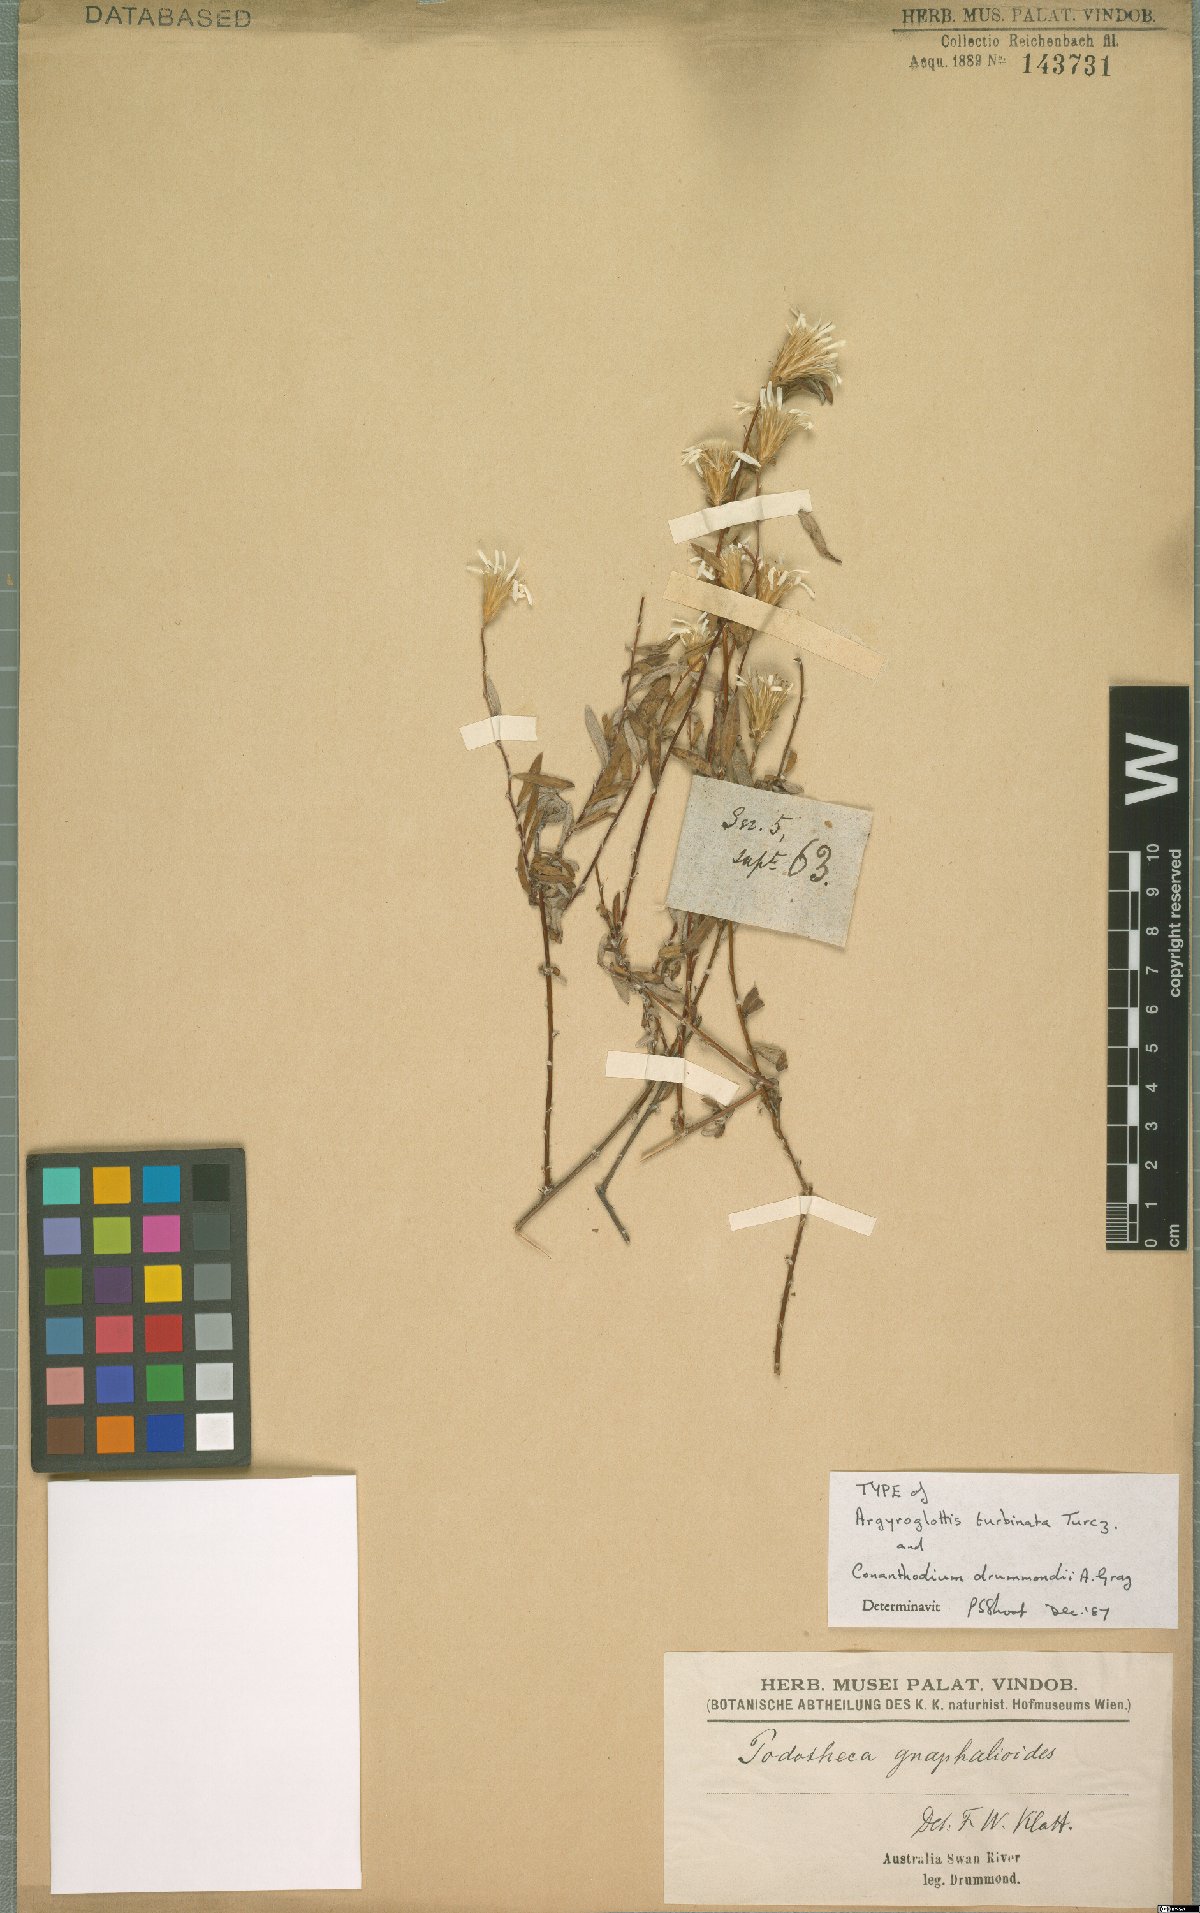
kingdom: Plantae
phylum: Tracheophyta
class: Magnoliopsida
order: Asterales
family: Asteraceae
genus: Argyroglottis
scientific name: Argyroglottis turbinata
